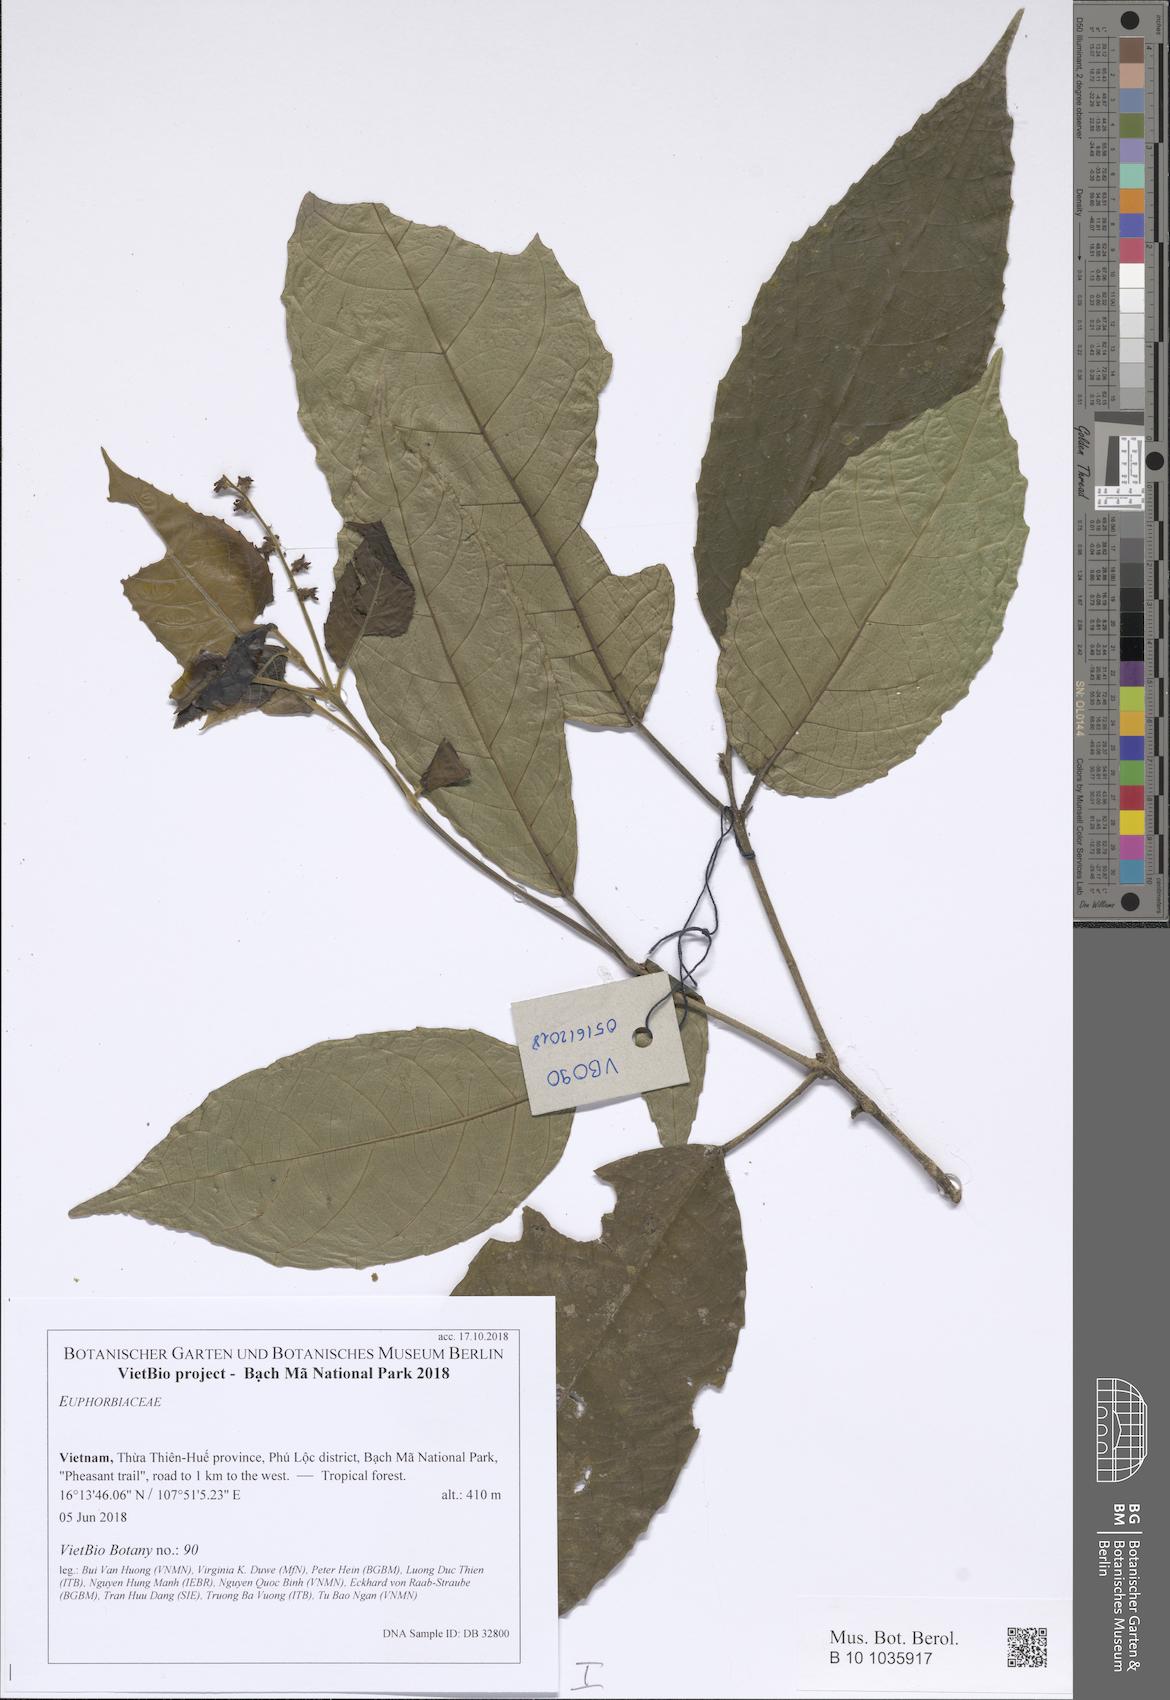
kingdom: Plantae
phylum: Tracheophyta
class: Magnoliopsida
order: Malpighiales
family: Euphorbiaceae
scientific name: Euphorbiaceae
